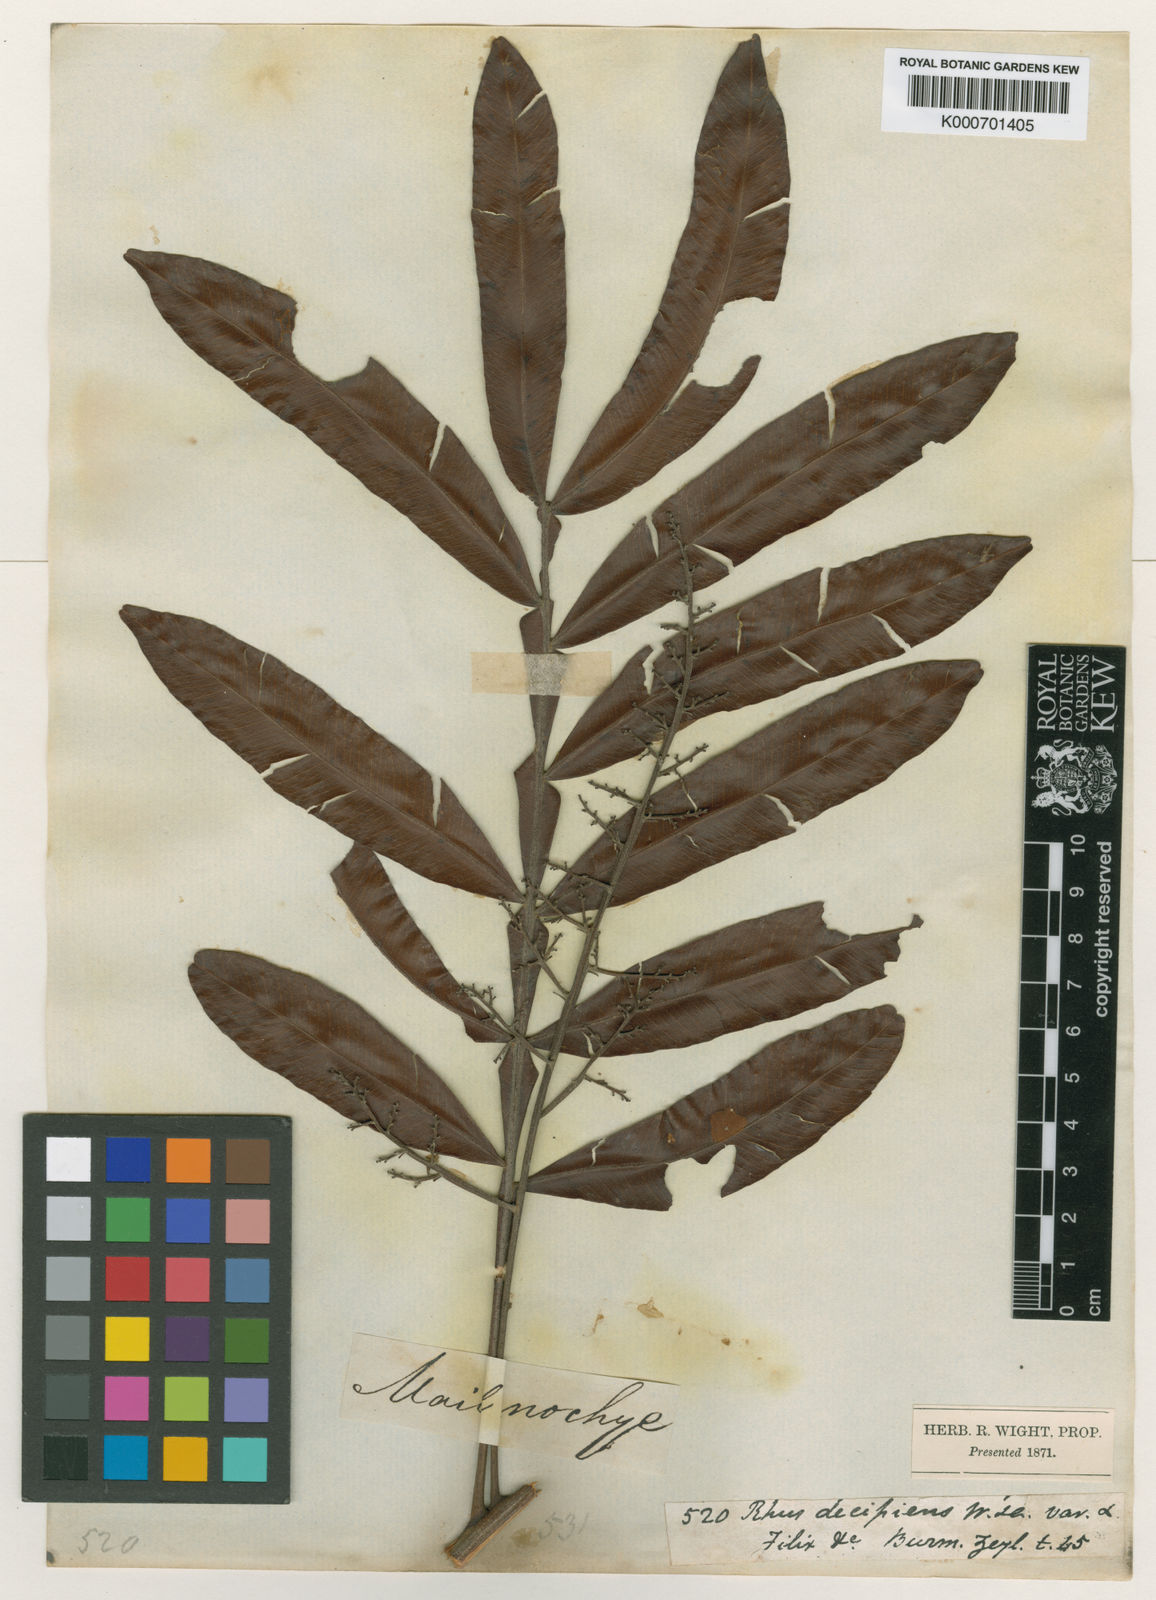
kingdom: Plantae
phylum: Tracheophyta
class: Magnoliopsida
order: Sapindales
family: Sapindaceae
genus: Filicium
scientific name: Filicium decipiens
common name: Ferntree
